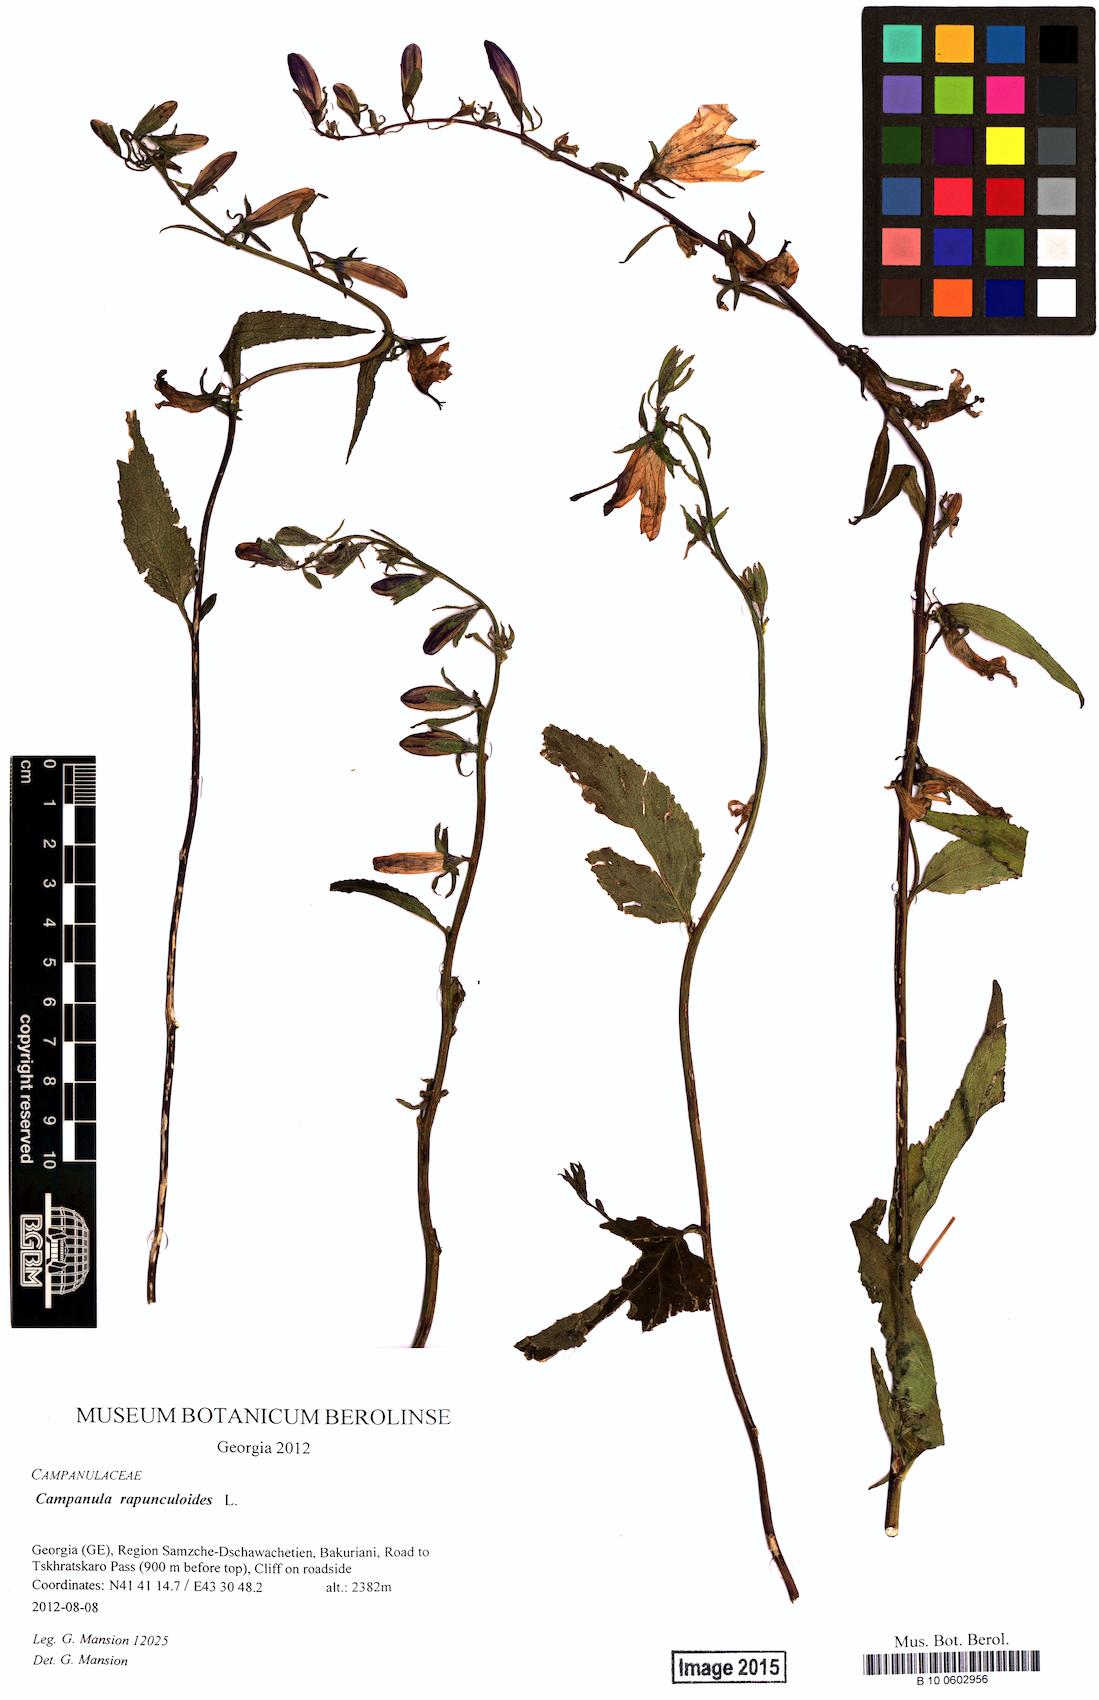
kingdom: Plantae
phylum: Tracheophyta
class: Magnoliopsida
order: Asterales
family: Campanulaceae
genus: Campanula
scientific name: Campanula rapunculoides
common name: Creeping bellflower
